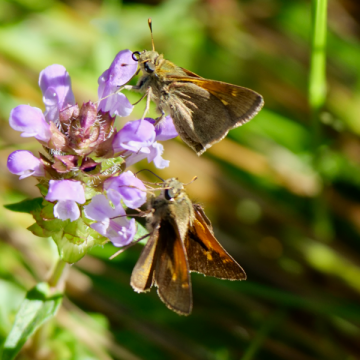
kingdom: Animalia
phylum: Arthropoda
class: Insecta
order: Lepidoptera
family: Hesperiidae
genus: Polites
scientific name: Polites themistocles
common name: Tawny-edged Skipper
